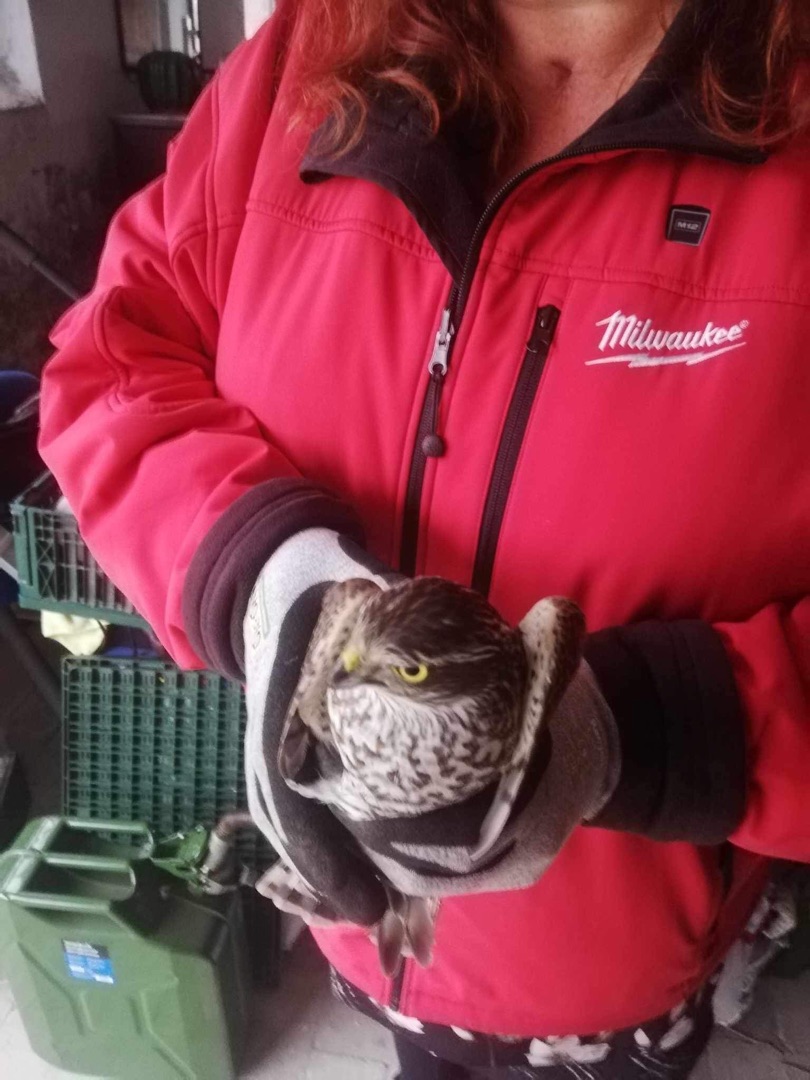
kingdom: Animalia
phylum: Chordata
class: Aves
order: Accipitriformes
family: Accipitridae
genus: Accipiter
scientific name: Accipiter nisus
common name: Spurvehøg
